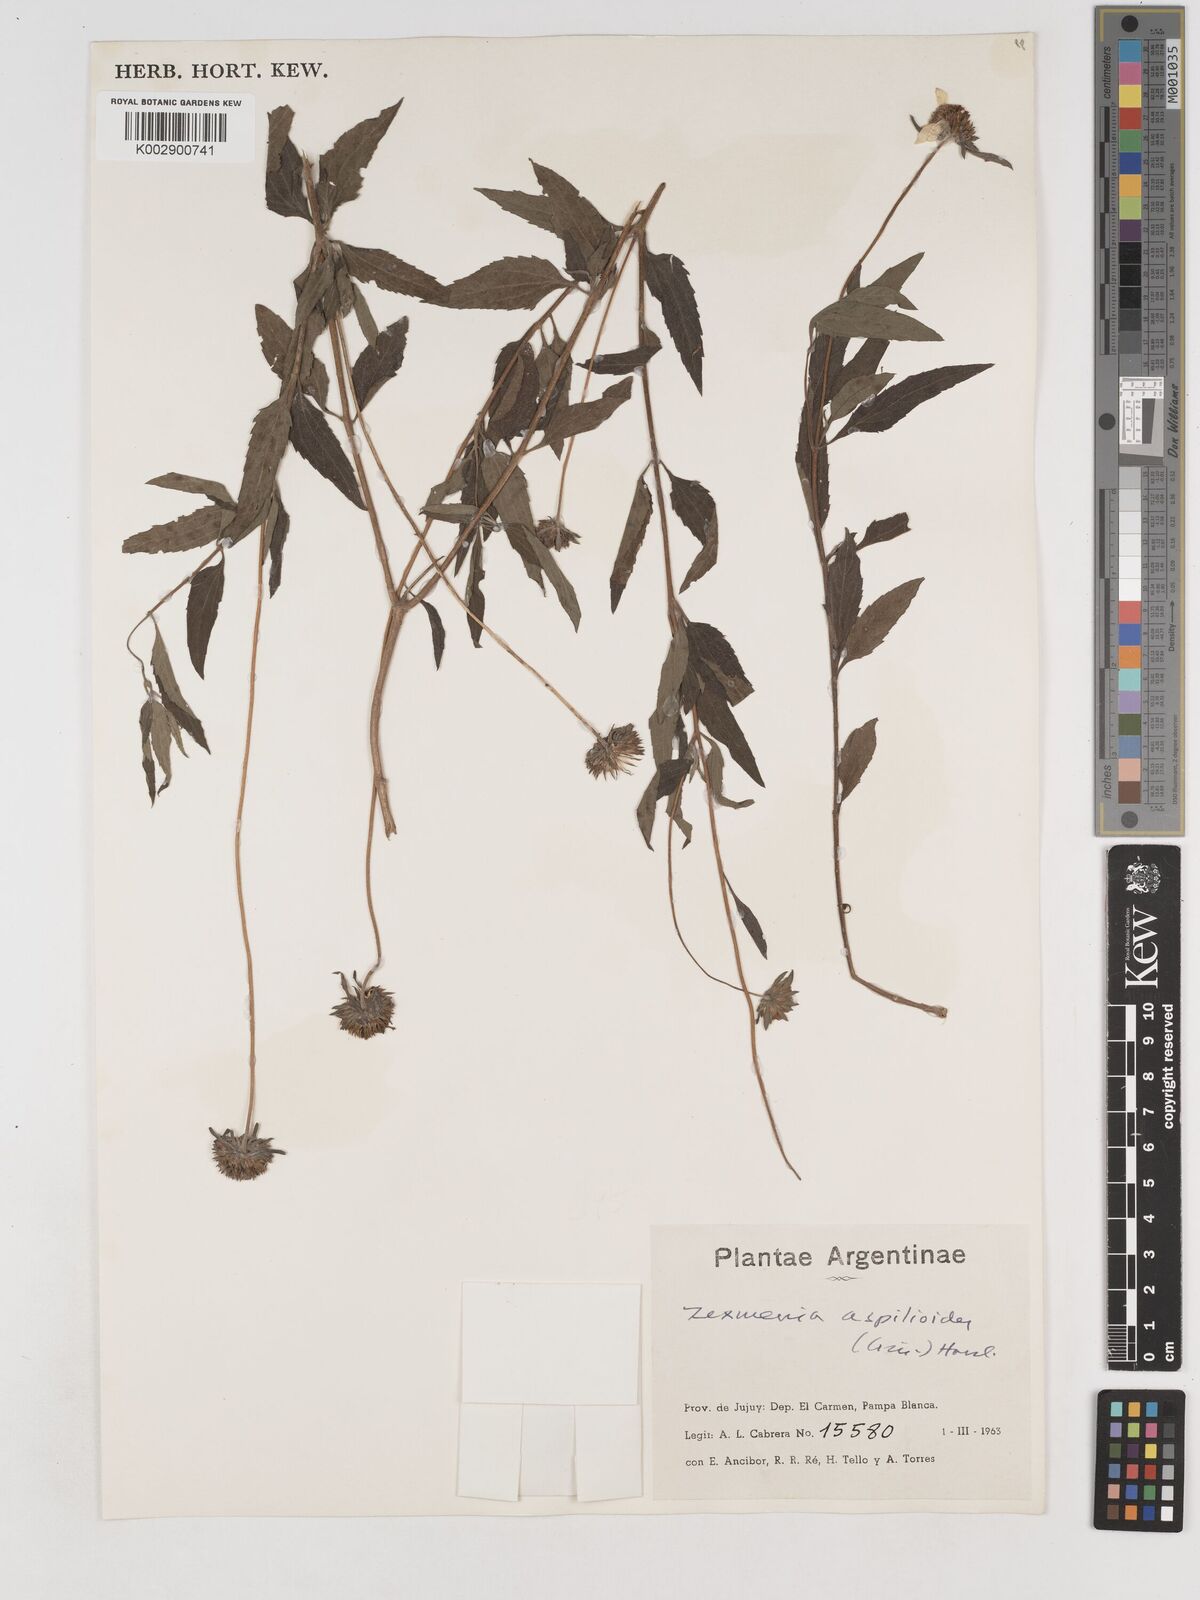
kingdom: Plantae
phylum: Tracheophyta
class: Magnoliopsida
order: Asterales
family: Asteraceae
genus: Dimerostemma
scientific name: Dimerostemma aspilioides
